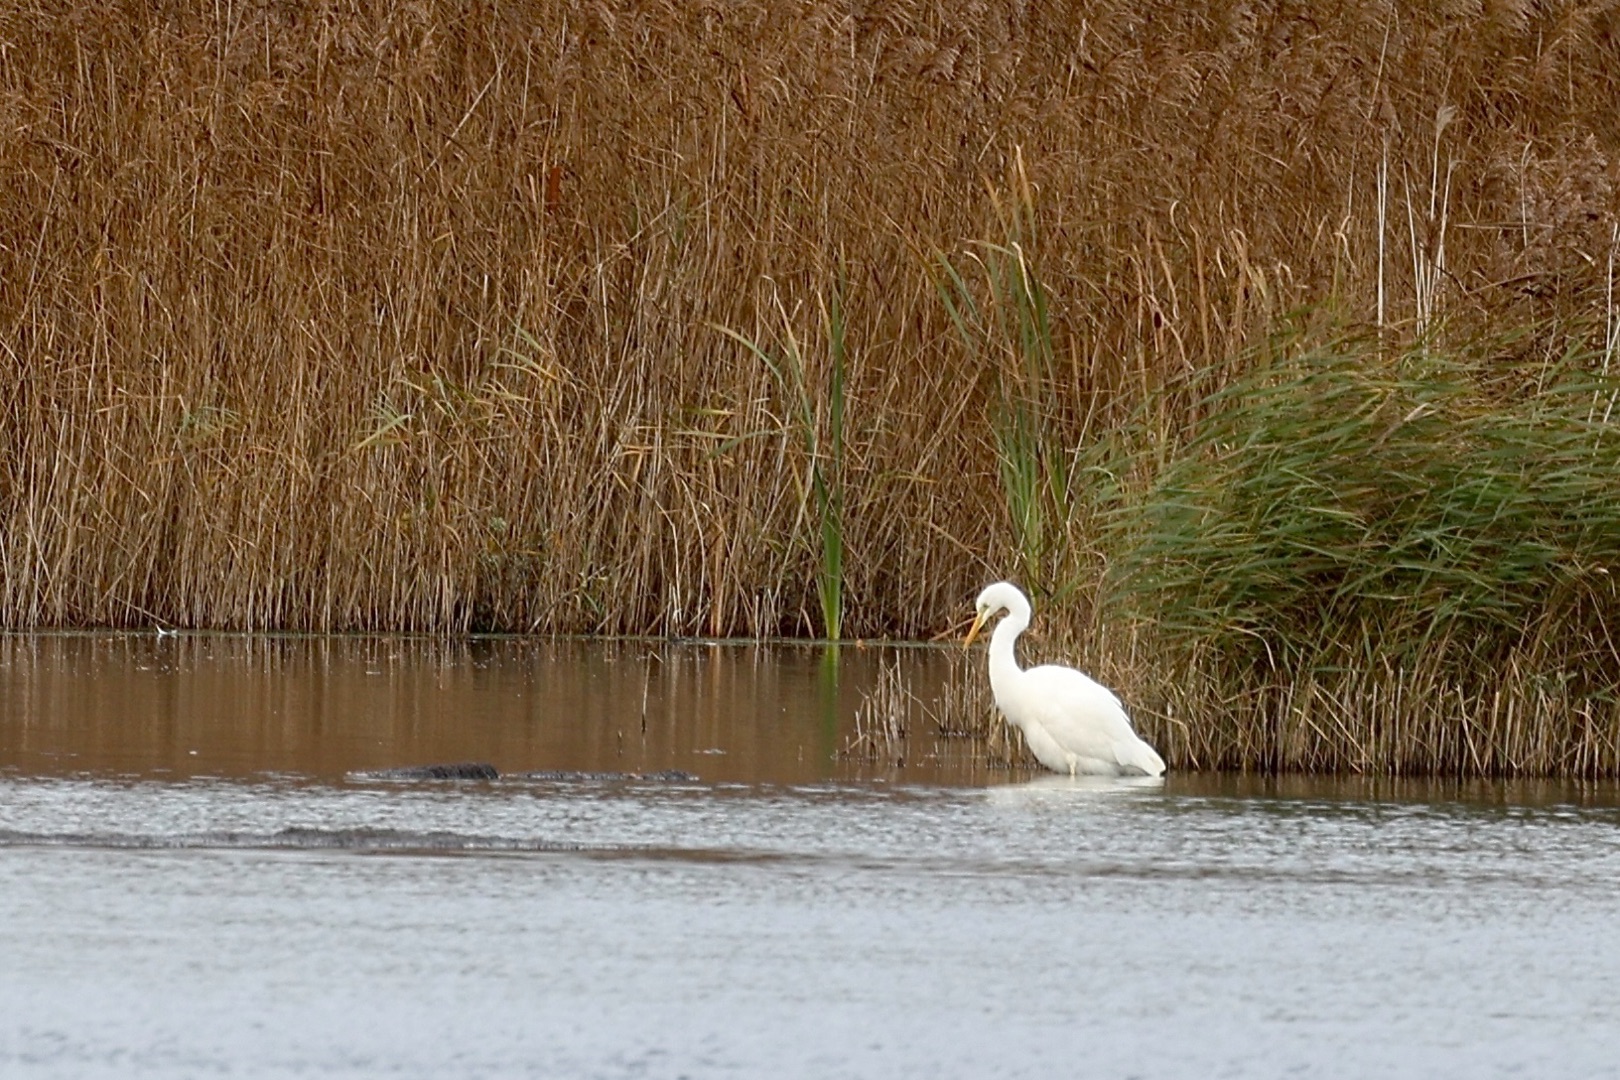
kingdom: Animalia
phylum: Chordata
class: Aves
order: Pelecaniformes
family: Ardeidae
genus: Ardea
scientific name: Ardea alba
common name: Sølvhejre
